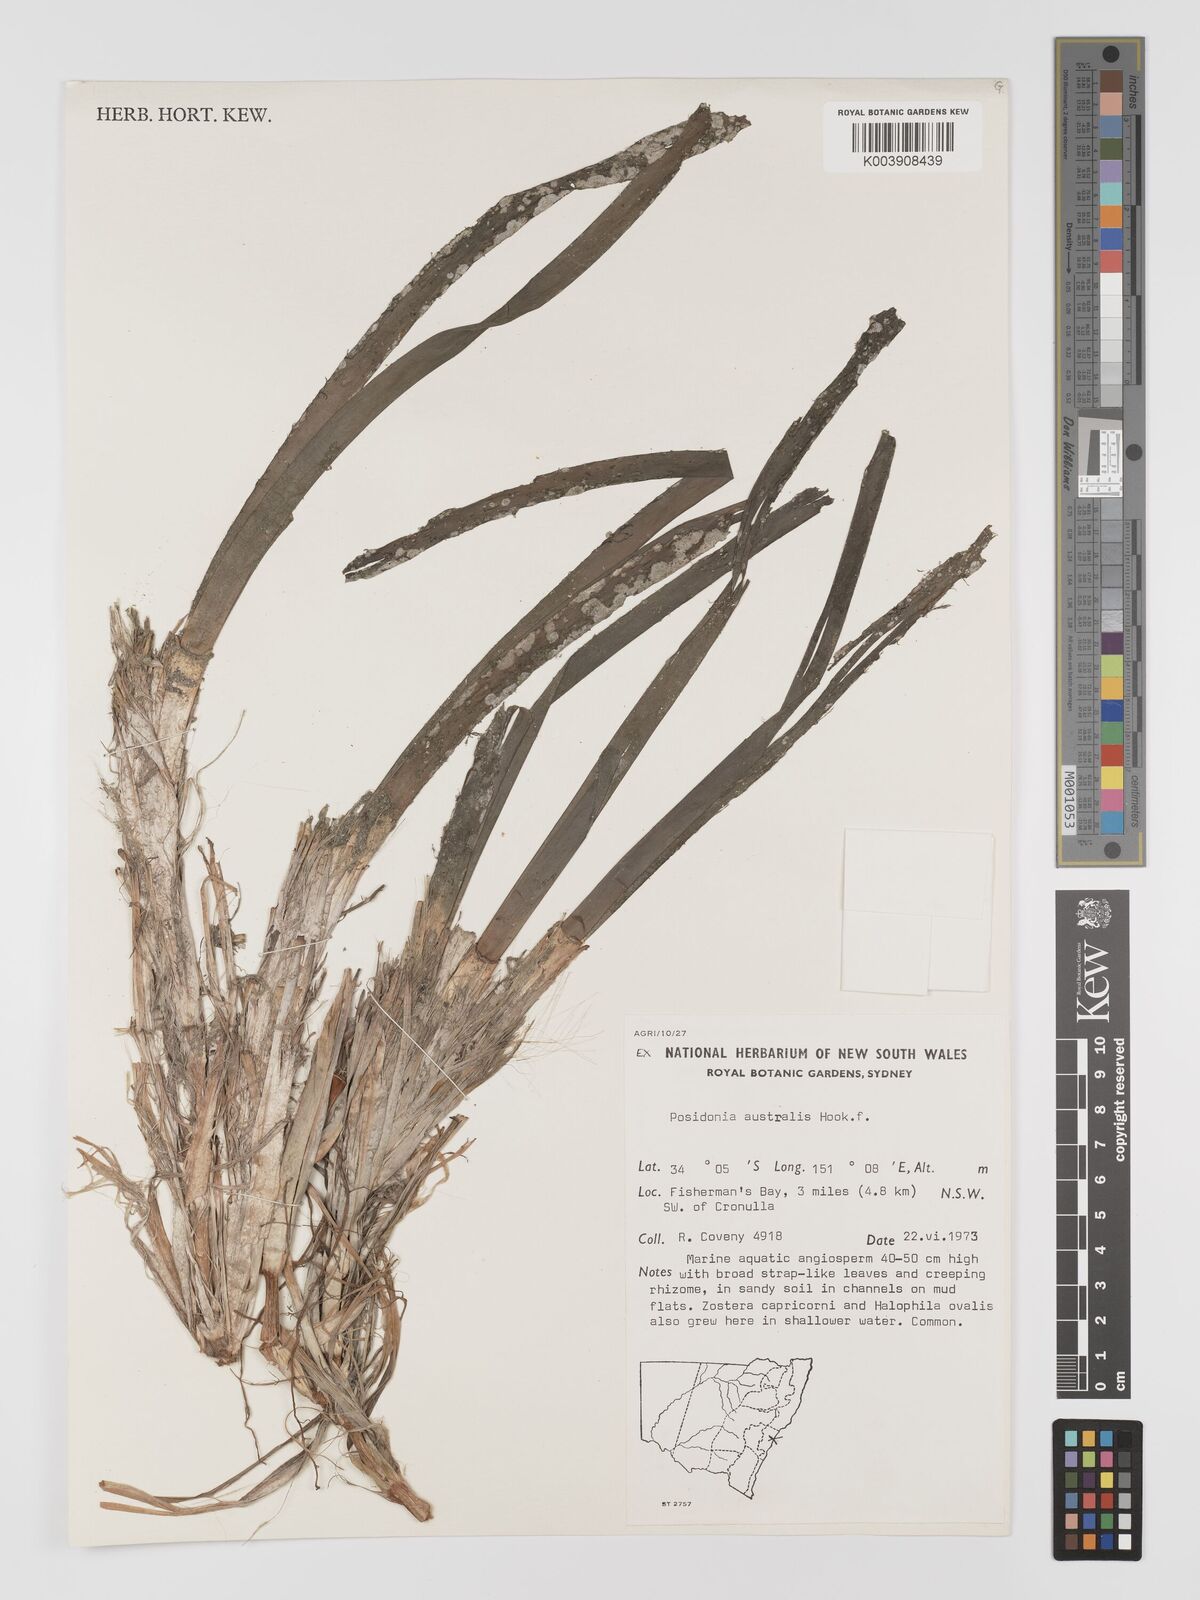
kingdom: Plantae
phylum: Tracheophyta
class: Liliopsida
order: Alismatales
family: Posidoniaceae
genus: Posidonia
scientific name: Posidonia australis
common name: Species code: pa
